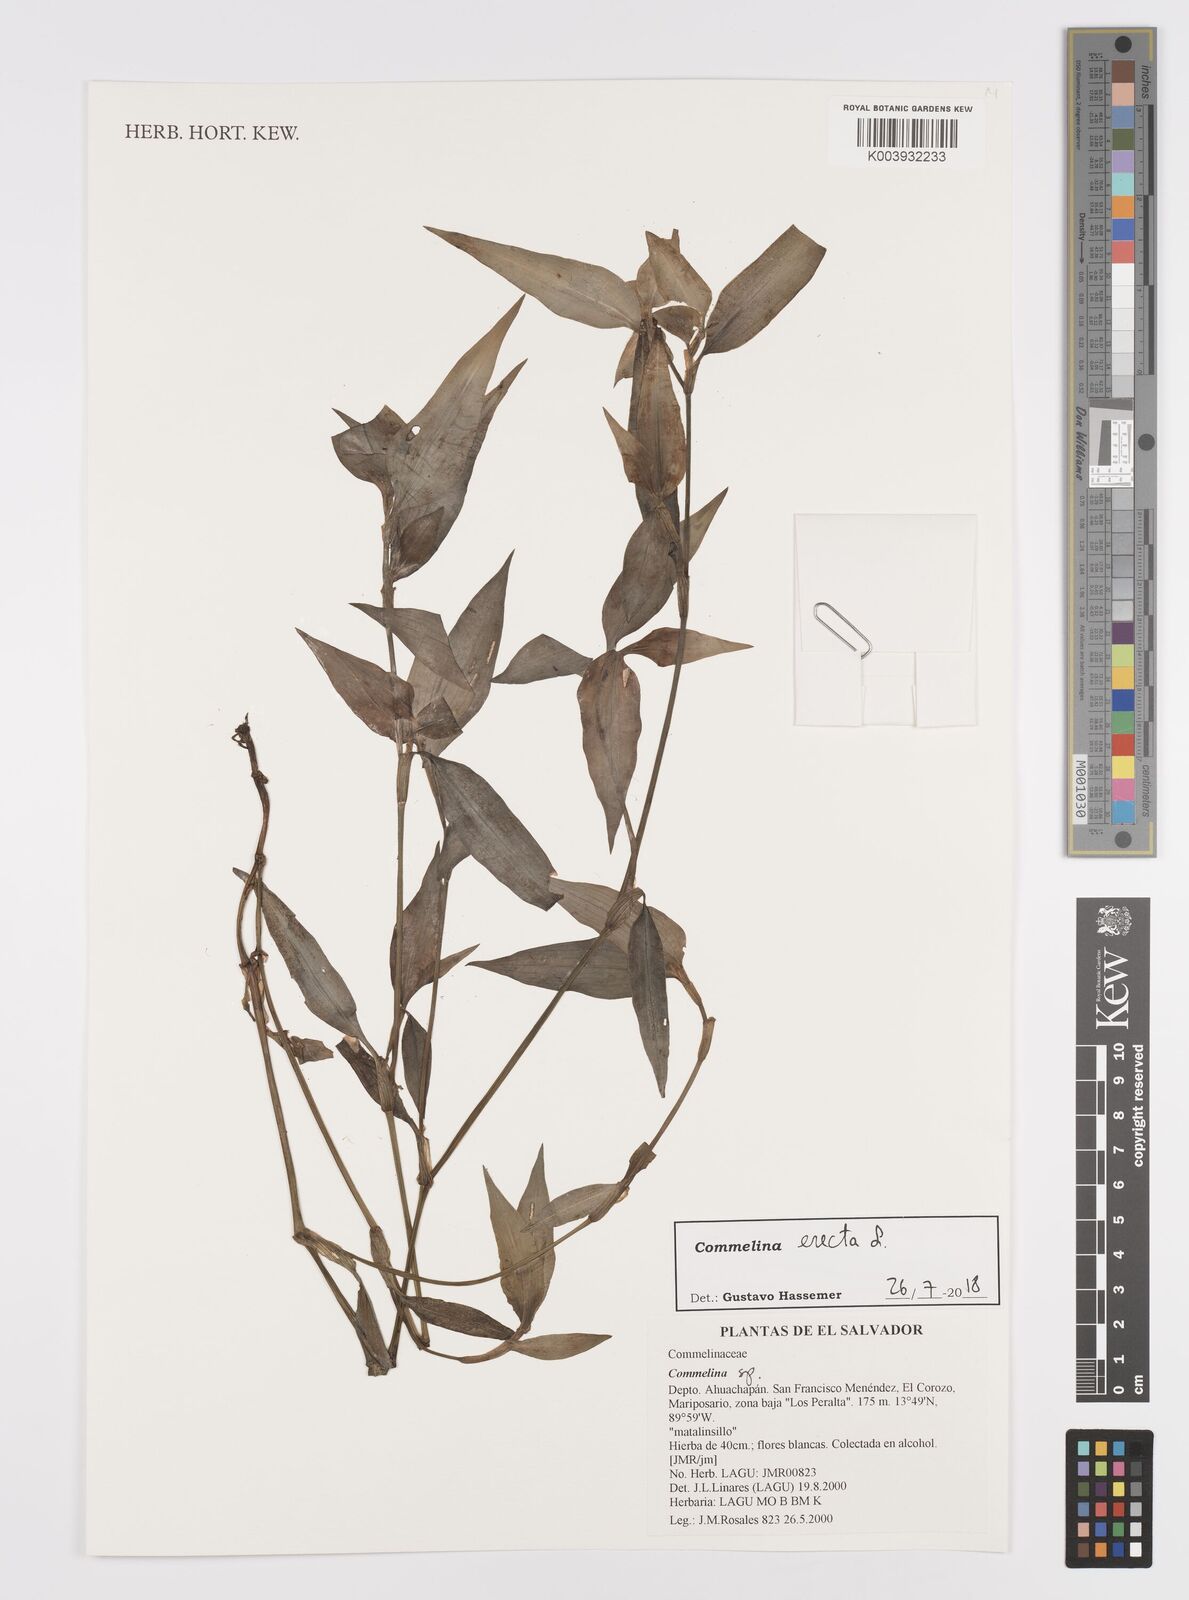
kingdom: Plantae
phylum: Tracheophyta
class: Liliopsida
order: Commelinales
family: Commelinaceae
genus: Commelina
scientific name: Commelina erecta
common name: Blousel blommetjie
